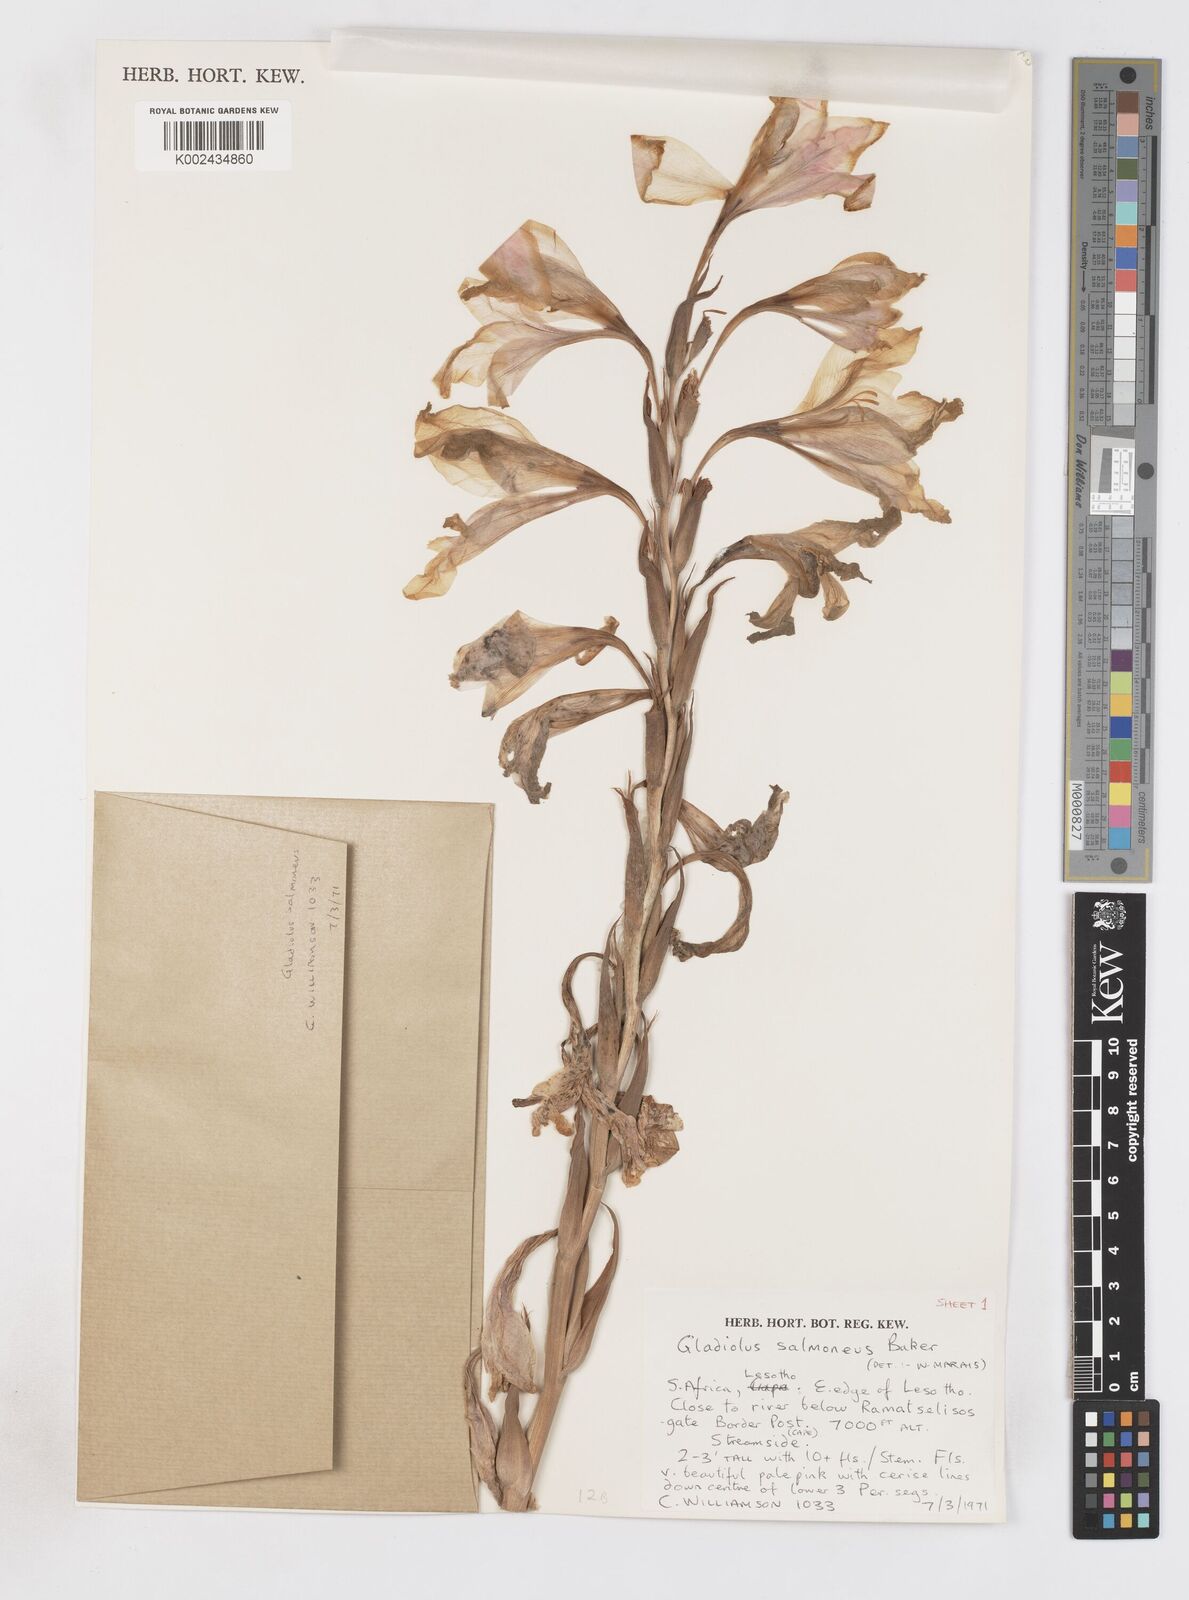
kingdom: Plantae
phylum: Tracheophyta
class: Liliopsida
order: Asparagales
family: Iridaceae
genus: Gladiolus
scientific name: Gladiolus oppositiflorus
